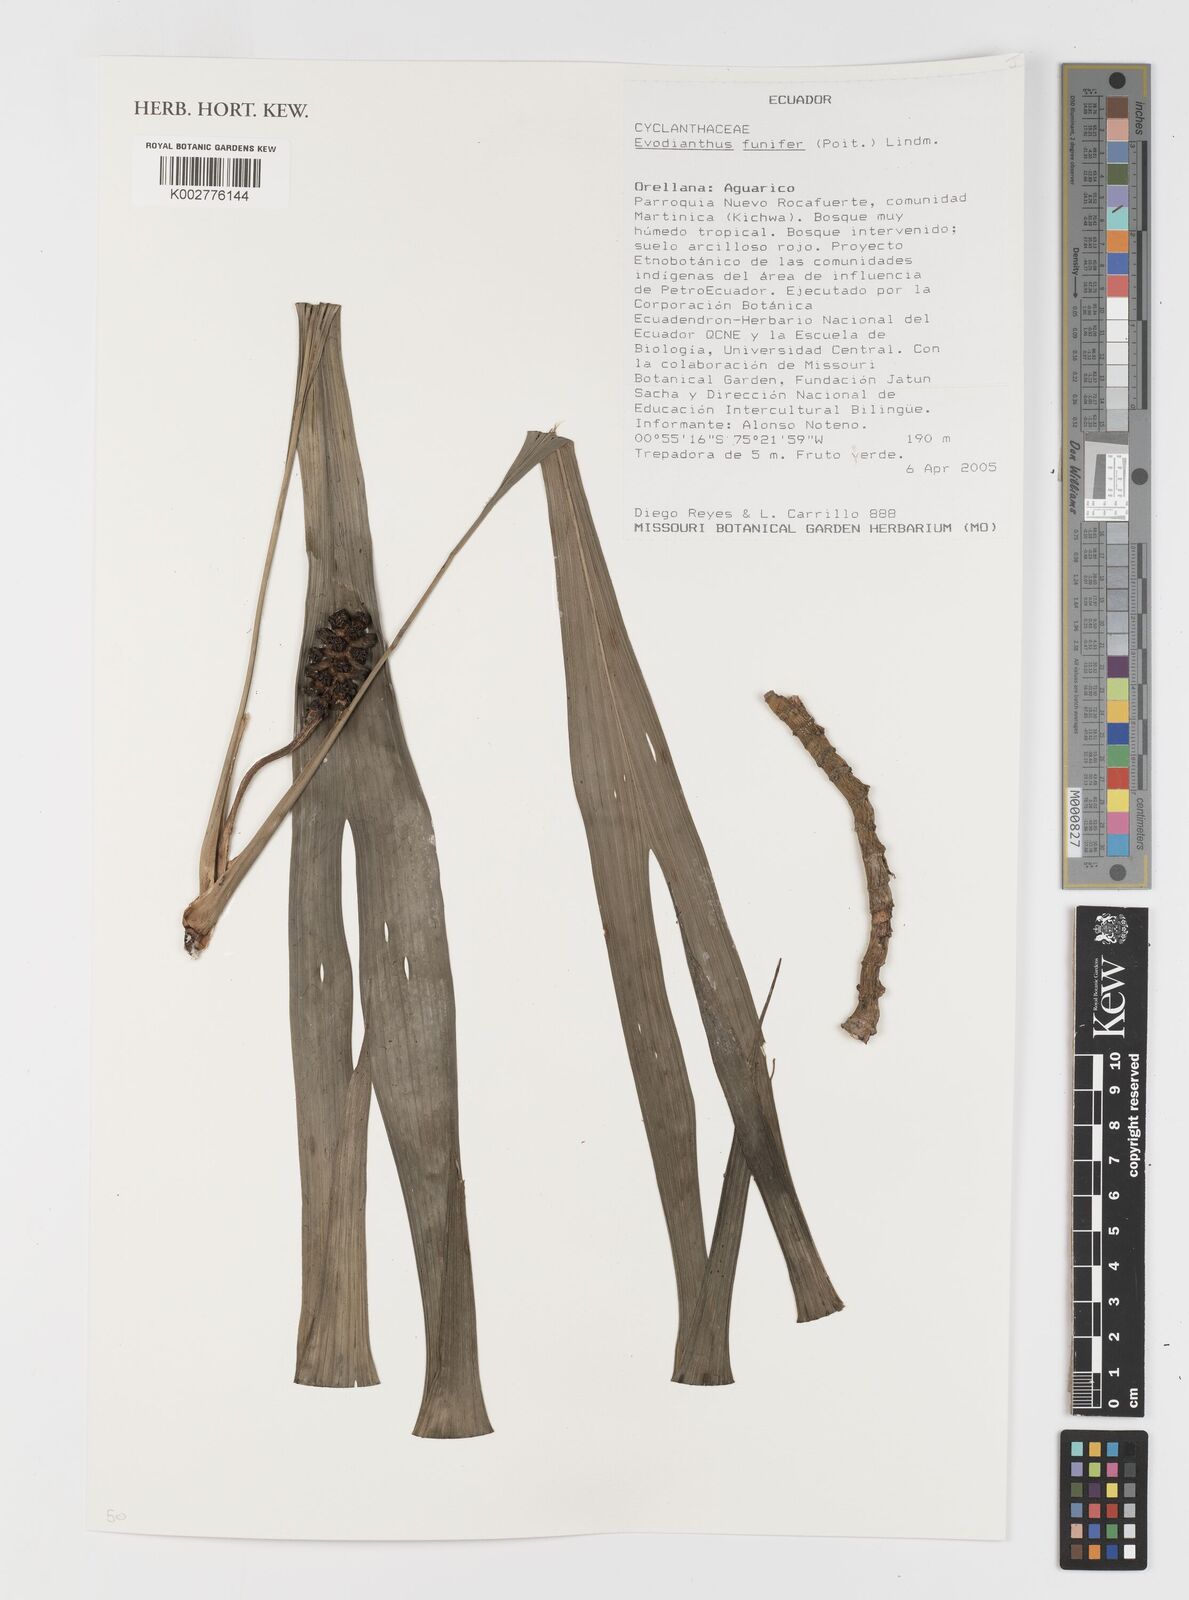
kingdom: Plantae
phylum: Tracheophyta
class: Liliopsida
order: Pandanales
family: Cyclanthaceae
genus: Evodianthus
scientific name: Evodianthus funifer
